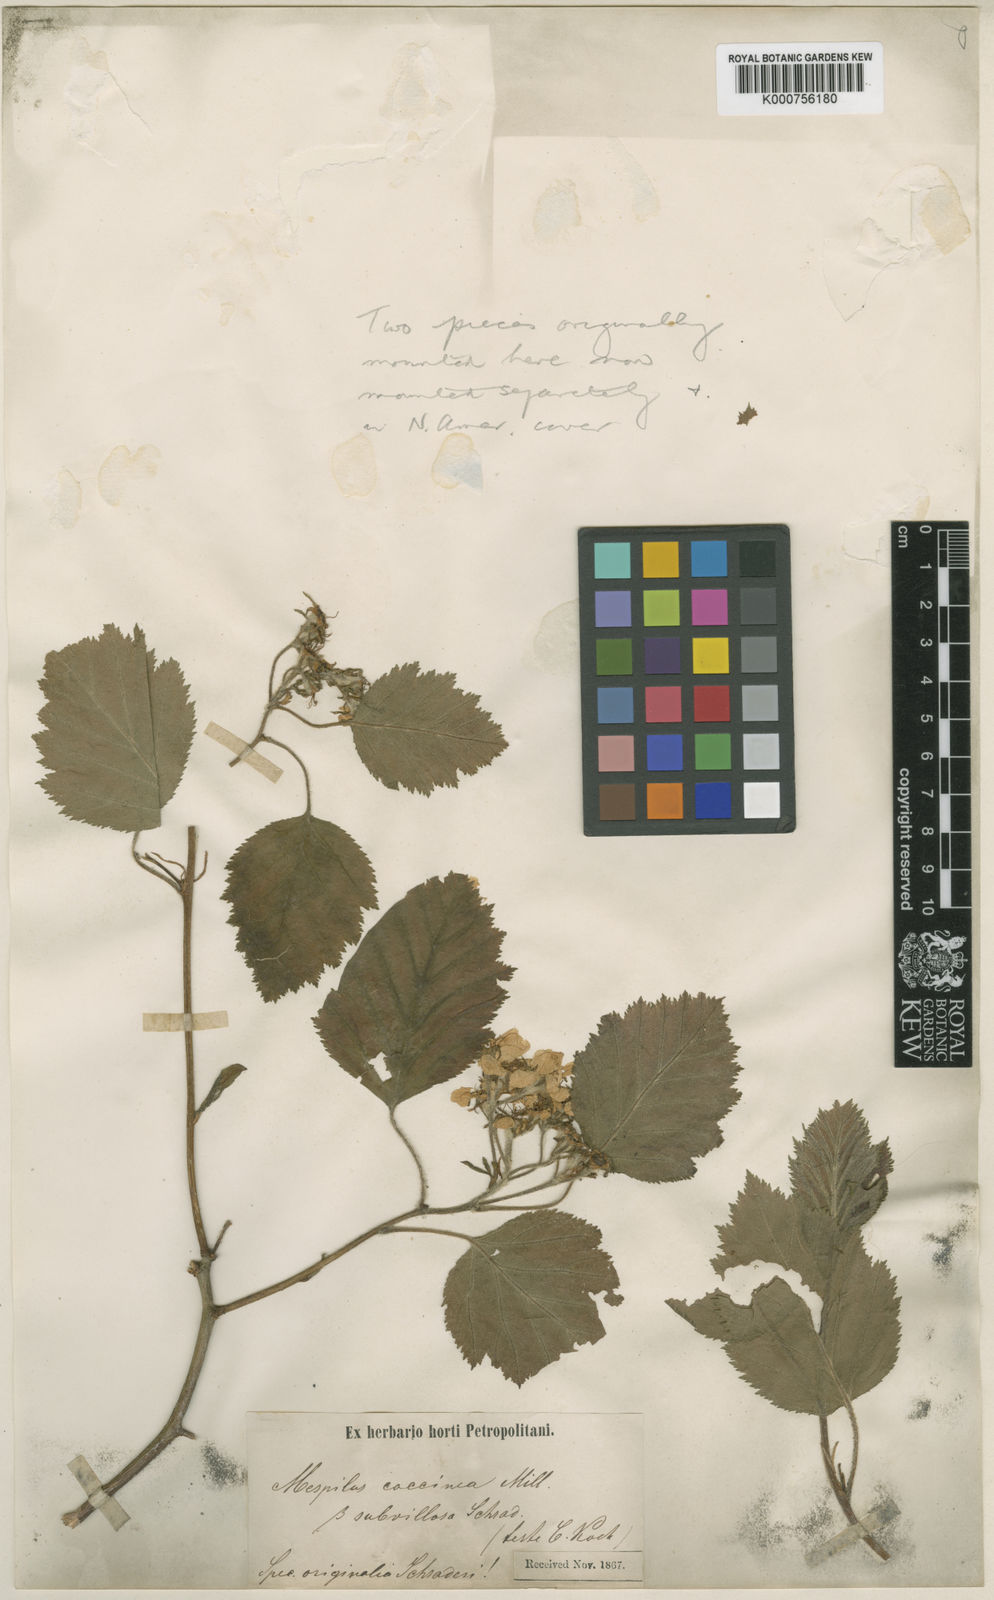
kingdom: Plantae
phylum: Tracheophyta
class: Magnoliopsida
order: Rosales
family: Rosaceae
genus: Crataegus
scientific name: Crataegus mollis
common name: Downy hawthorn
